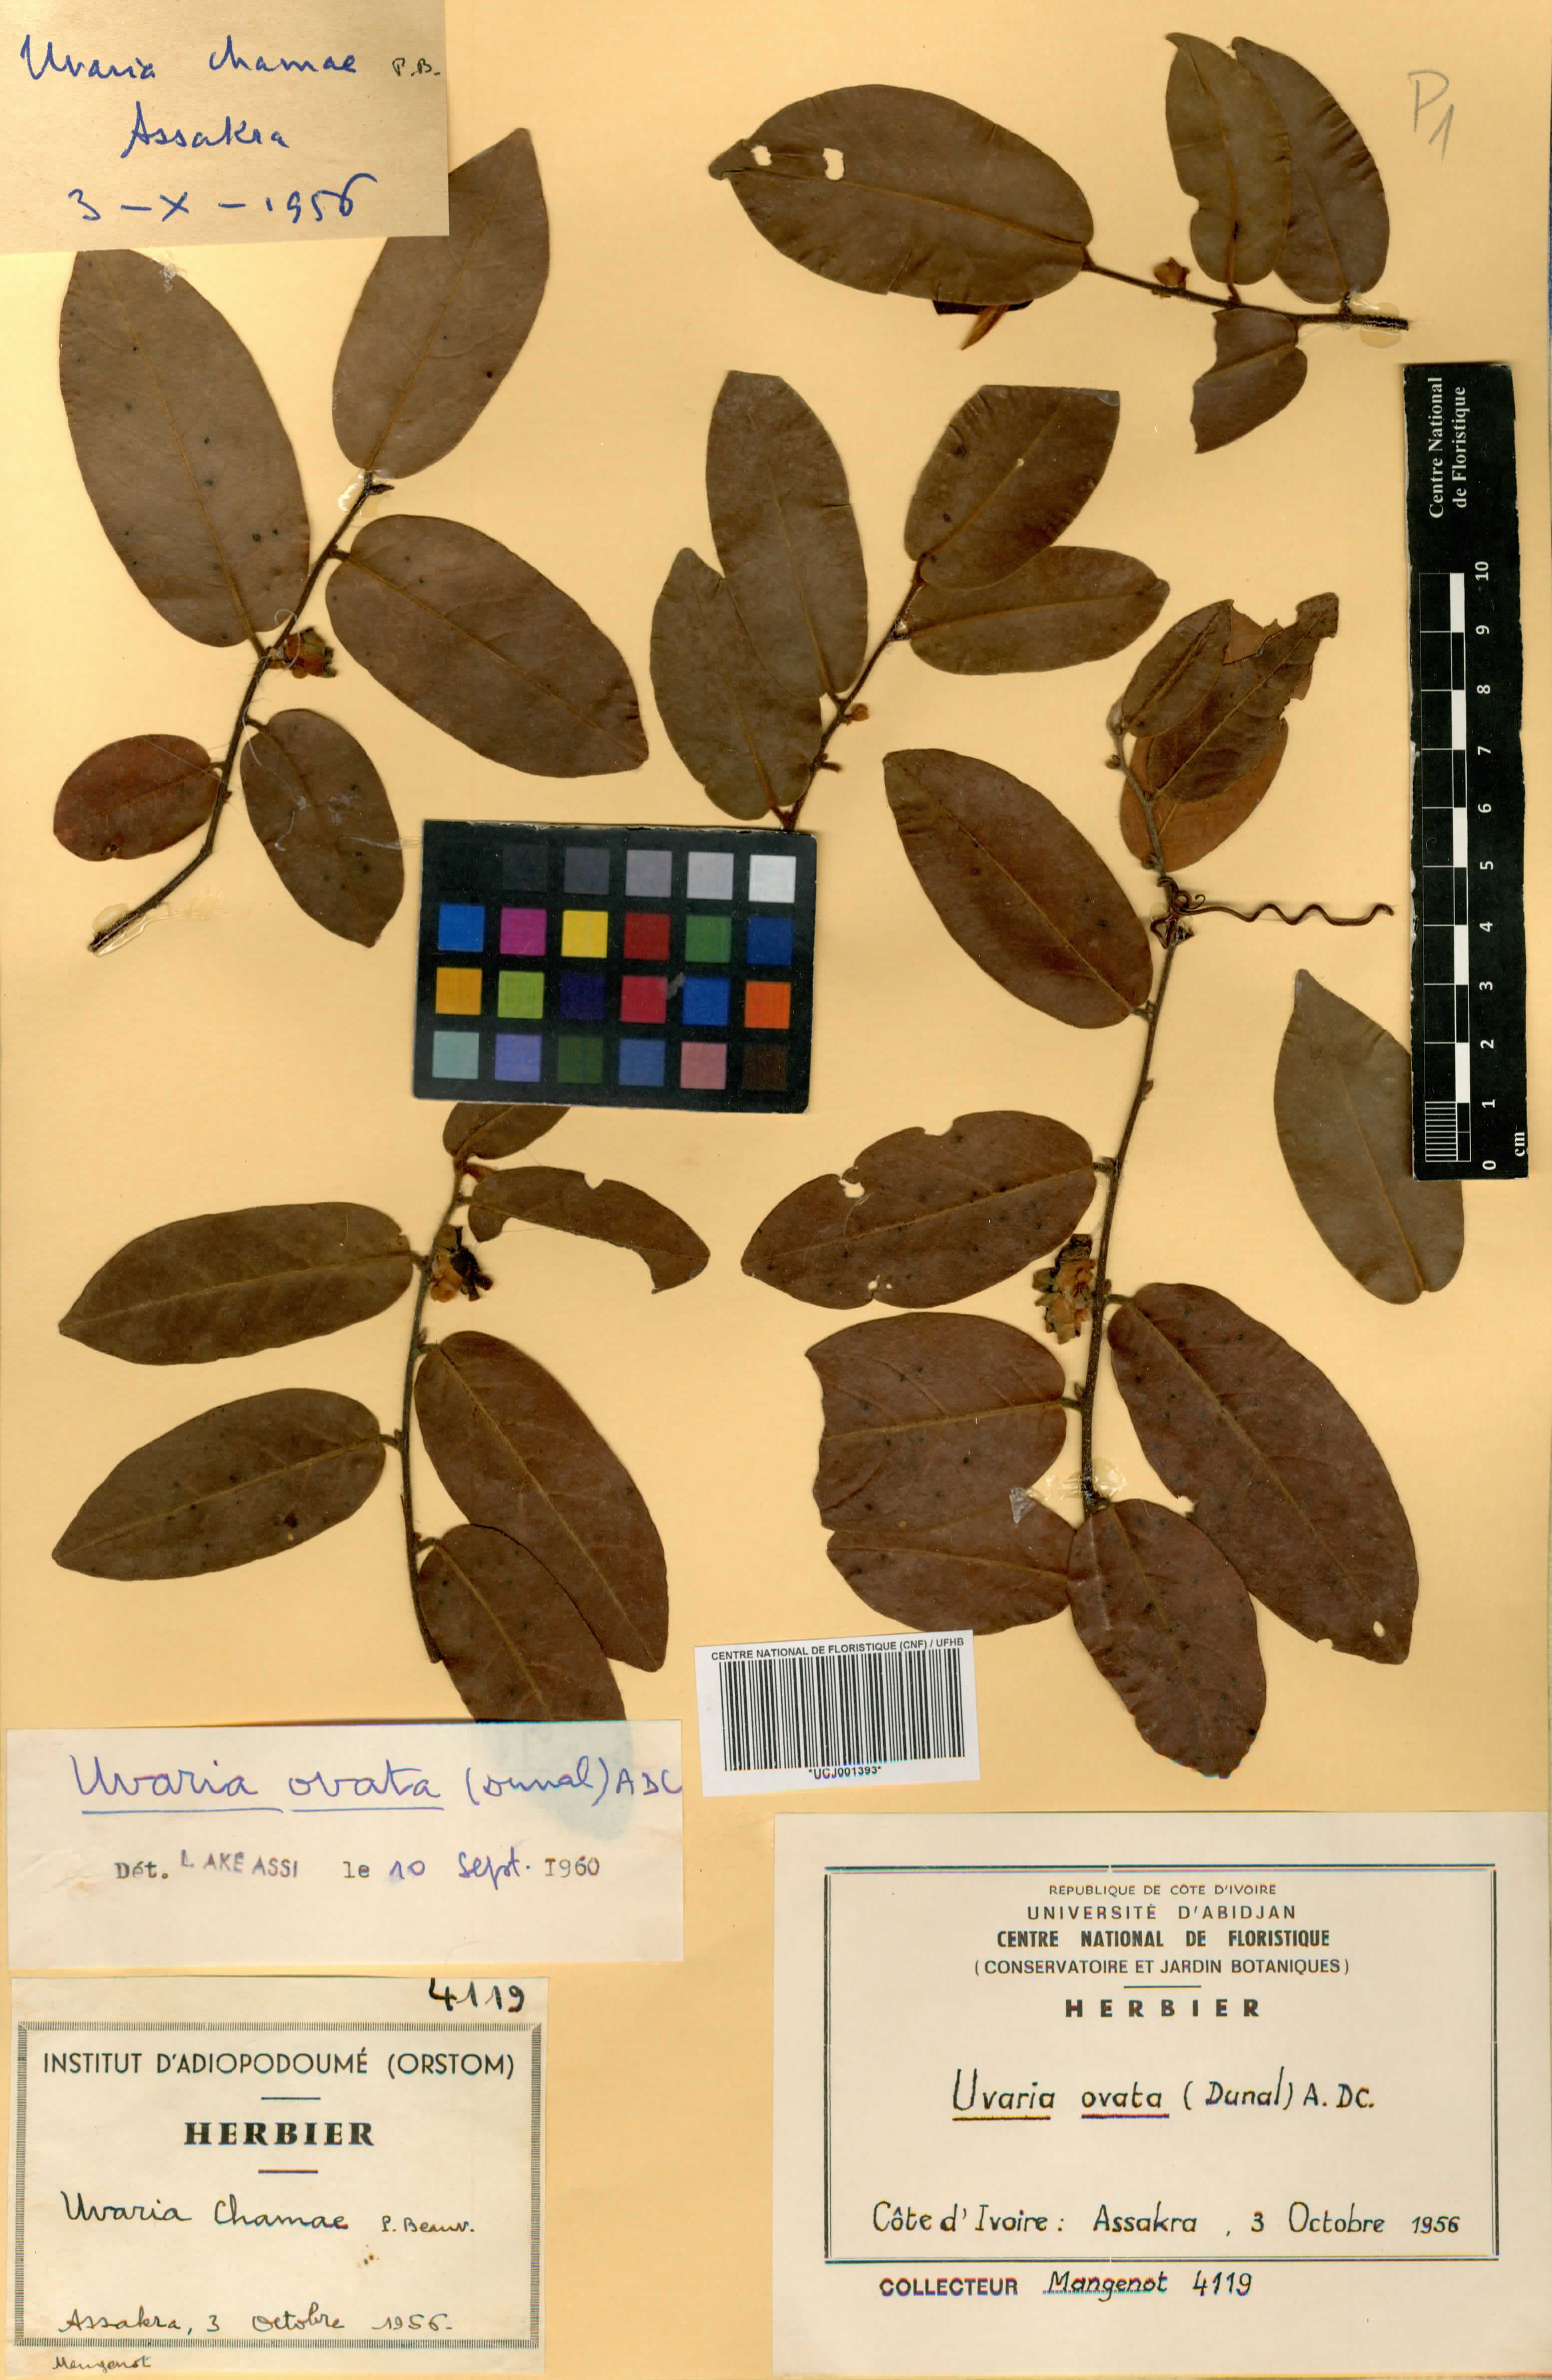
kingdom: Plantae
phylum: Tracheophyta
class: Magnoliopsida
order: Magnoliales
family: Annonaceae
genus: Uvaria
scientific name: Uvaria ovata
